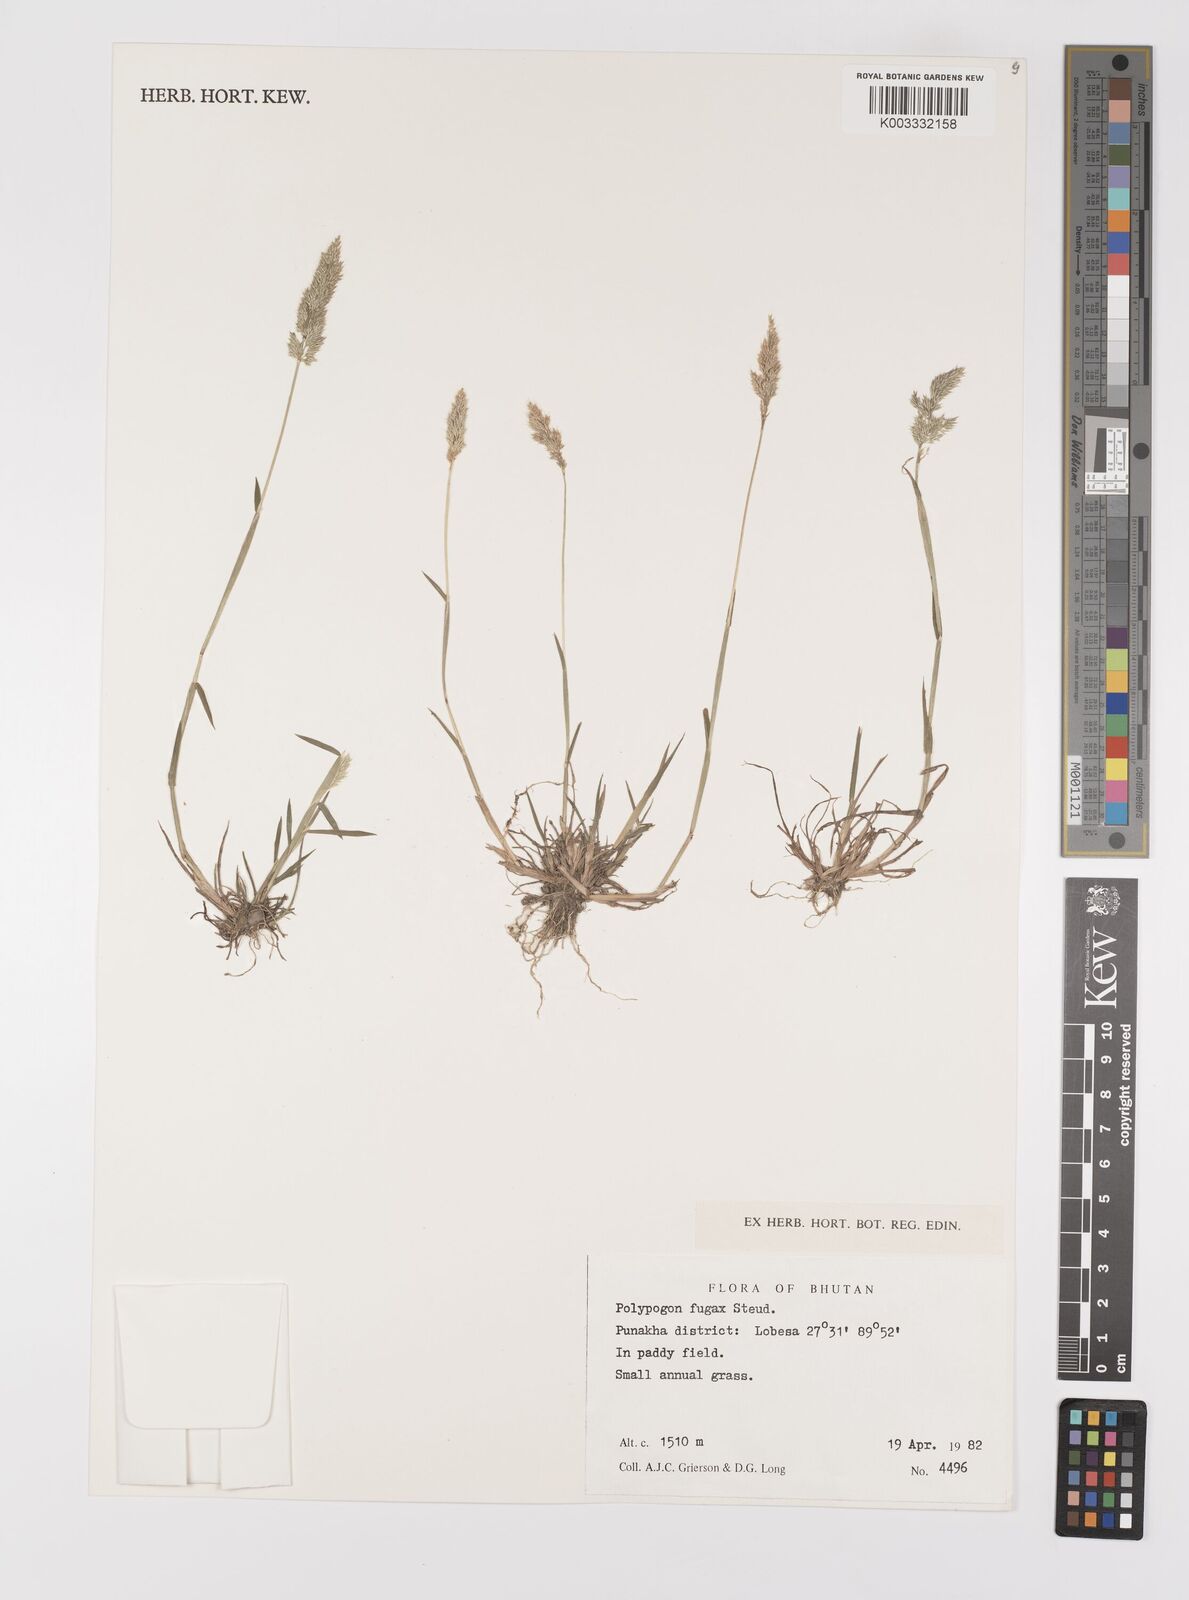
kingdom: Plantae
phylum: Tracheophyta
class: Liliopsida
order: Poales
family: Poaceae
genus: Polypogon
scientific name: Polypogon fugax
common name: Asia minor bluegrass
